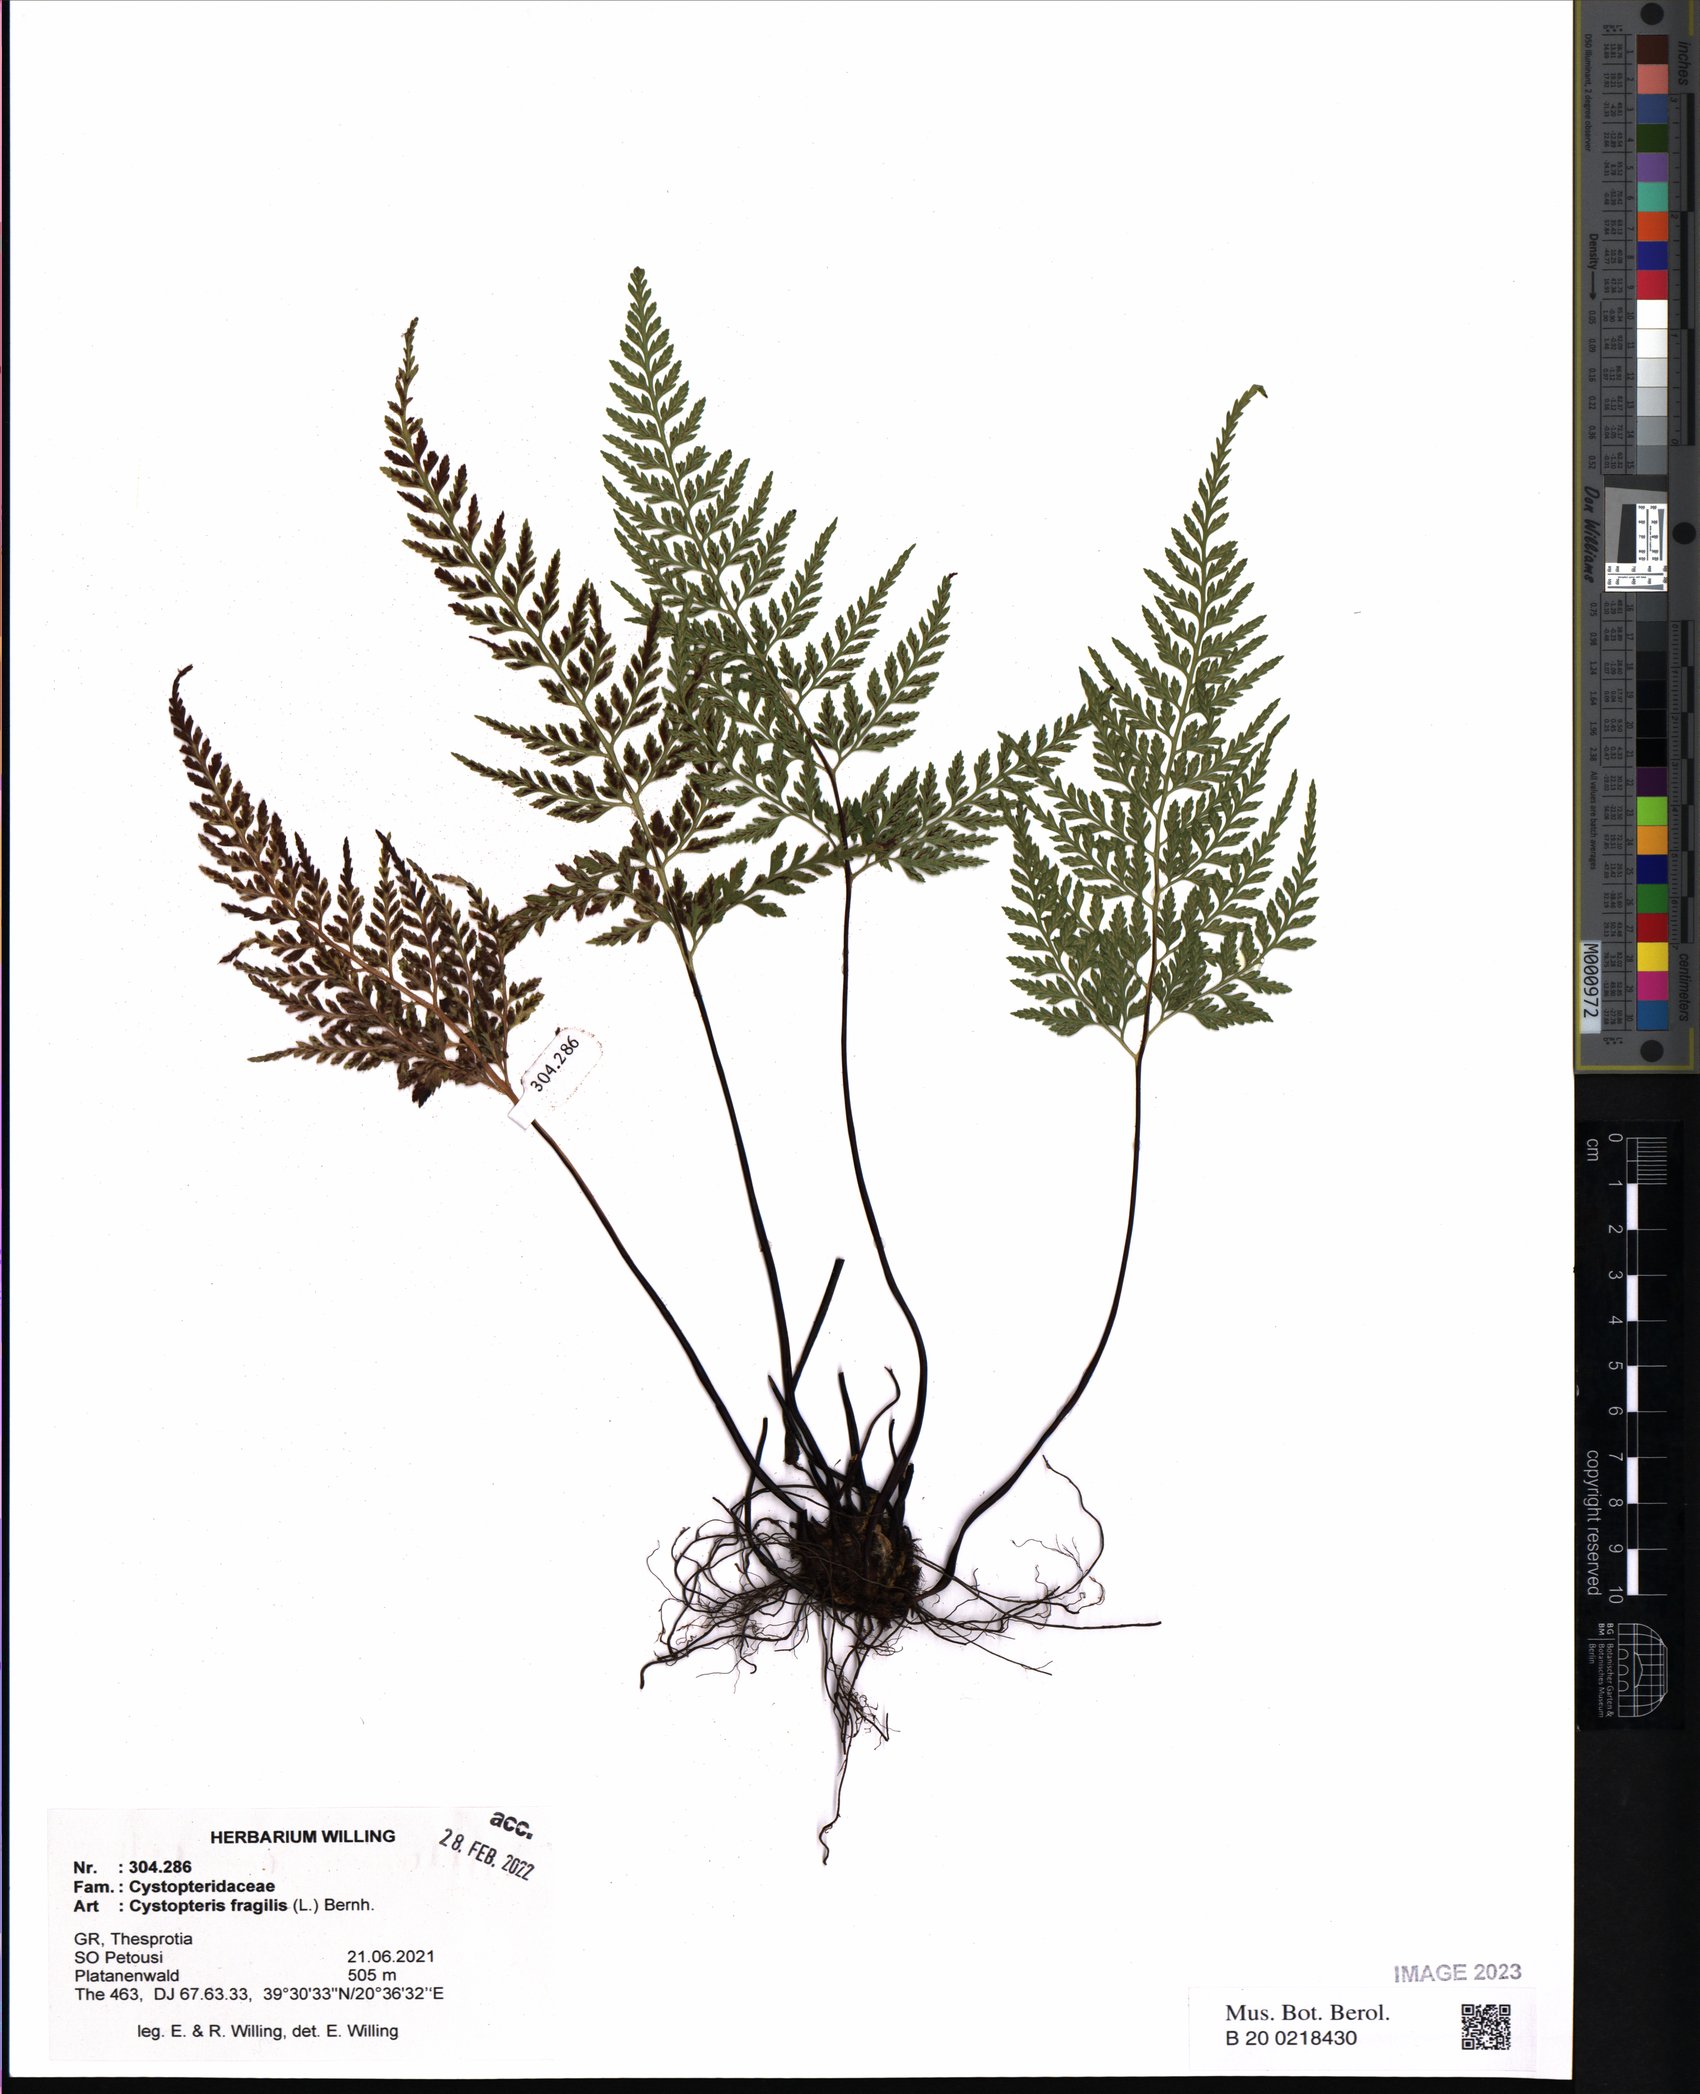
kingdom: Plantae
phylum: Tracheophyta
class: Polypodiopsida
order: Polypodiales
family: Cystopteridaceae
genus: Cystopteris
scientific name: Cystopteris fragilis
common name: Brittle bladder fern
